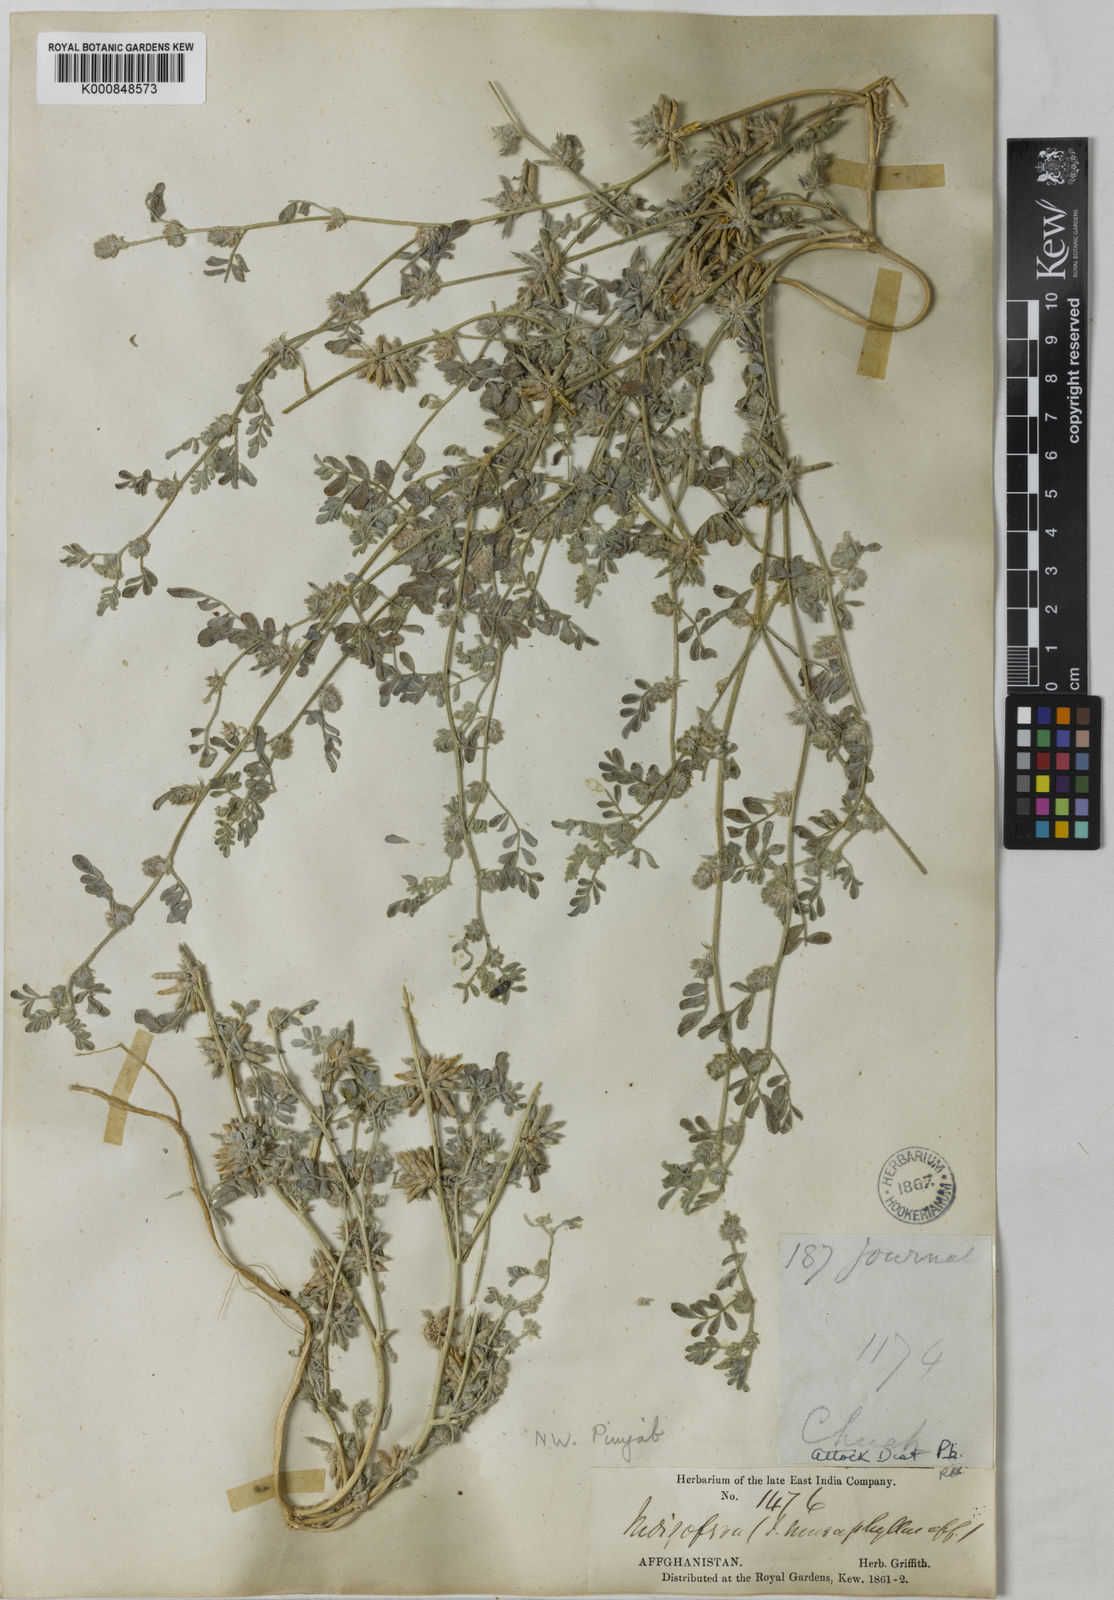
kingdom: Plantae
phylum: Tracheophyta
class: Magnoliopsida
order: Fabales
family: Fabaceae
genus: Indigofera
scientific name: Indigofera trigonelloides
